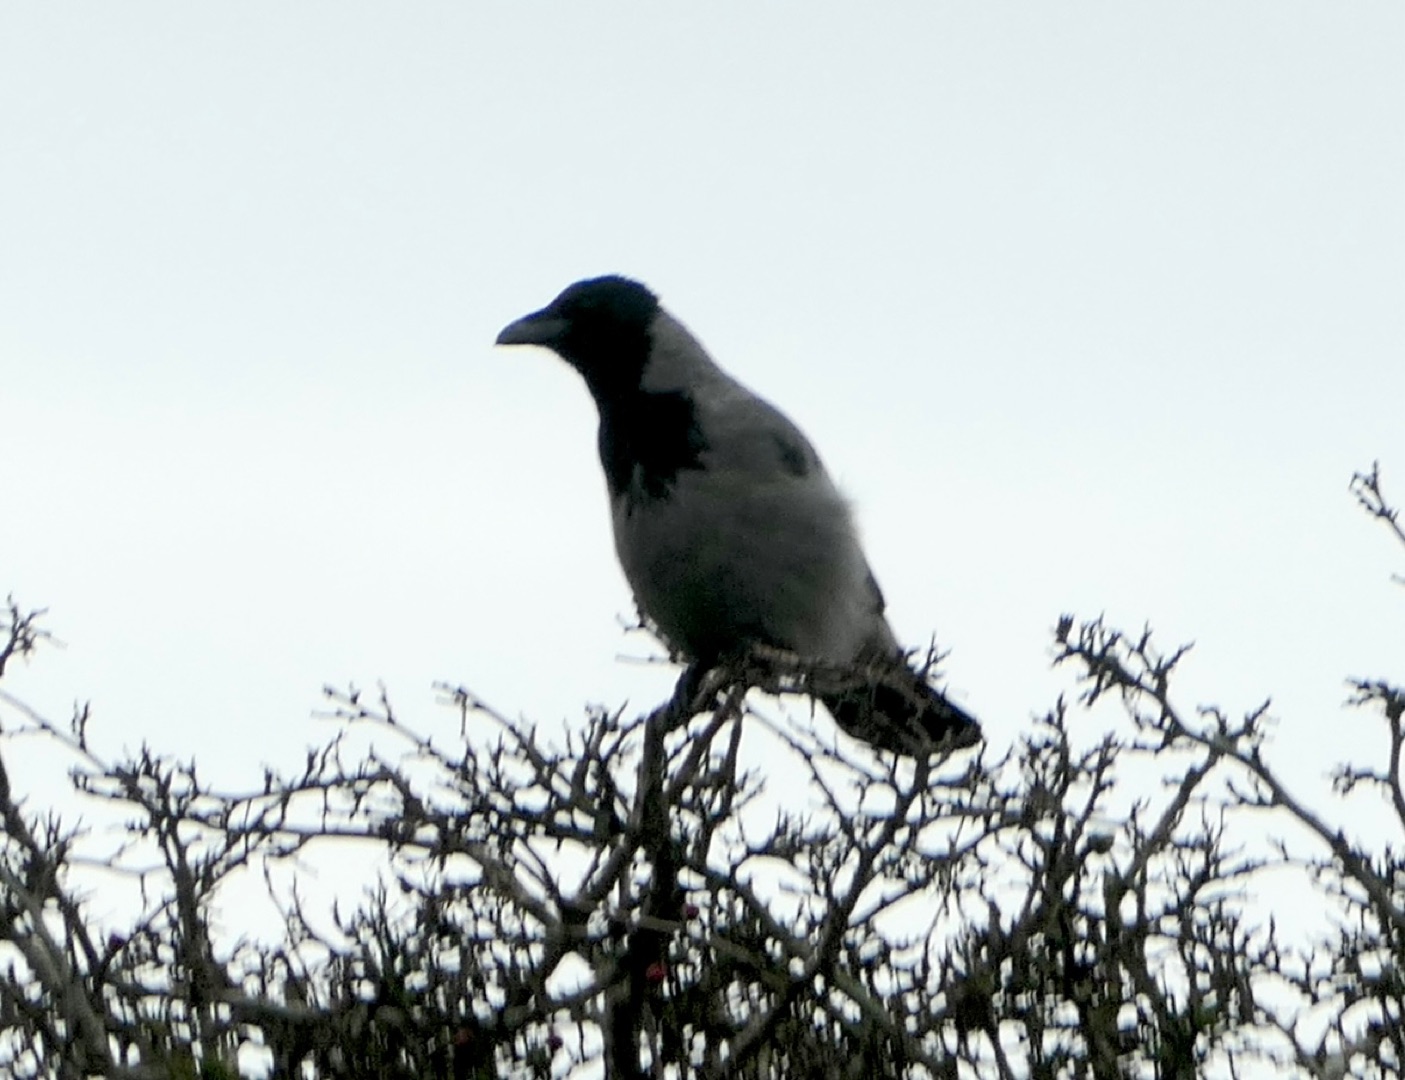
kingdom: Animalia
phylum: Chordata
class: Aves
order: Passeriformes
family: Corvidae
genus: Corvus
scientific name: Corvus cornix
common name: Gråkrage
